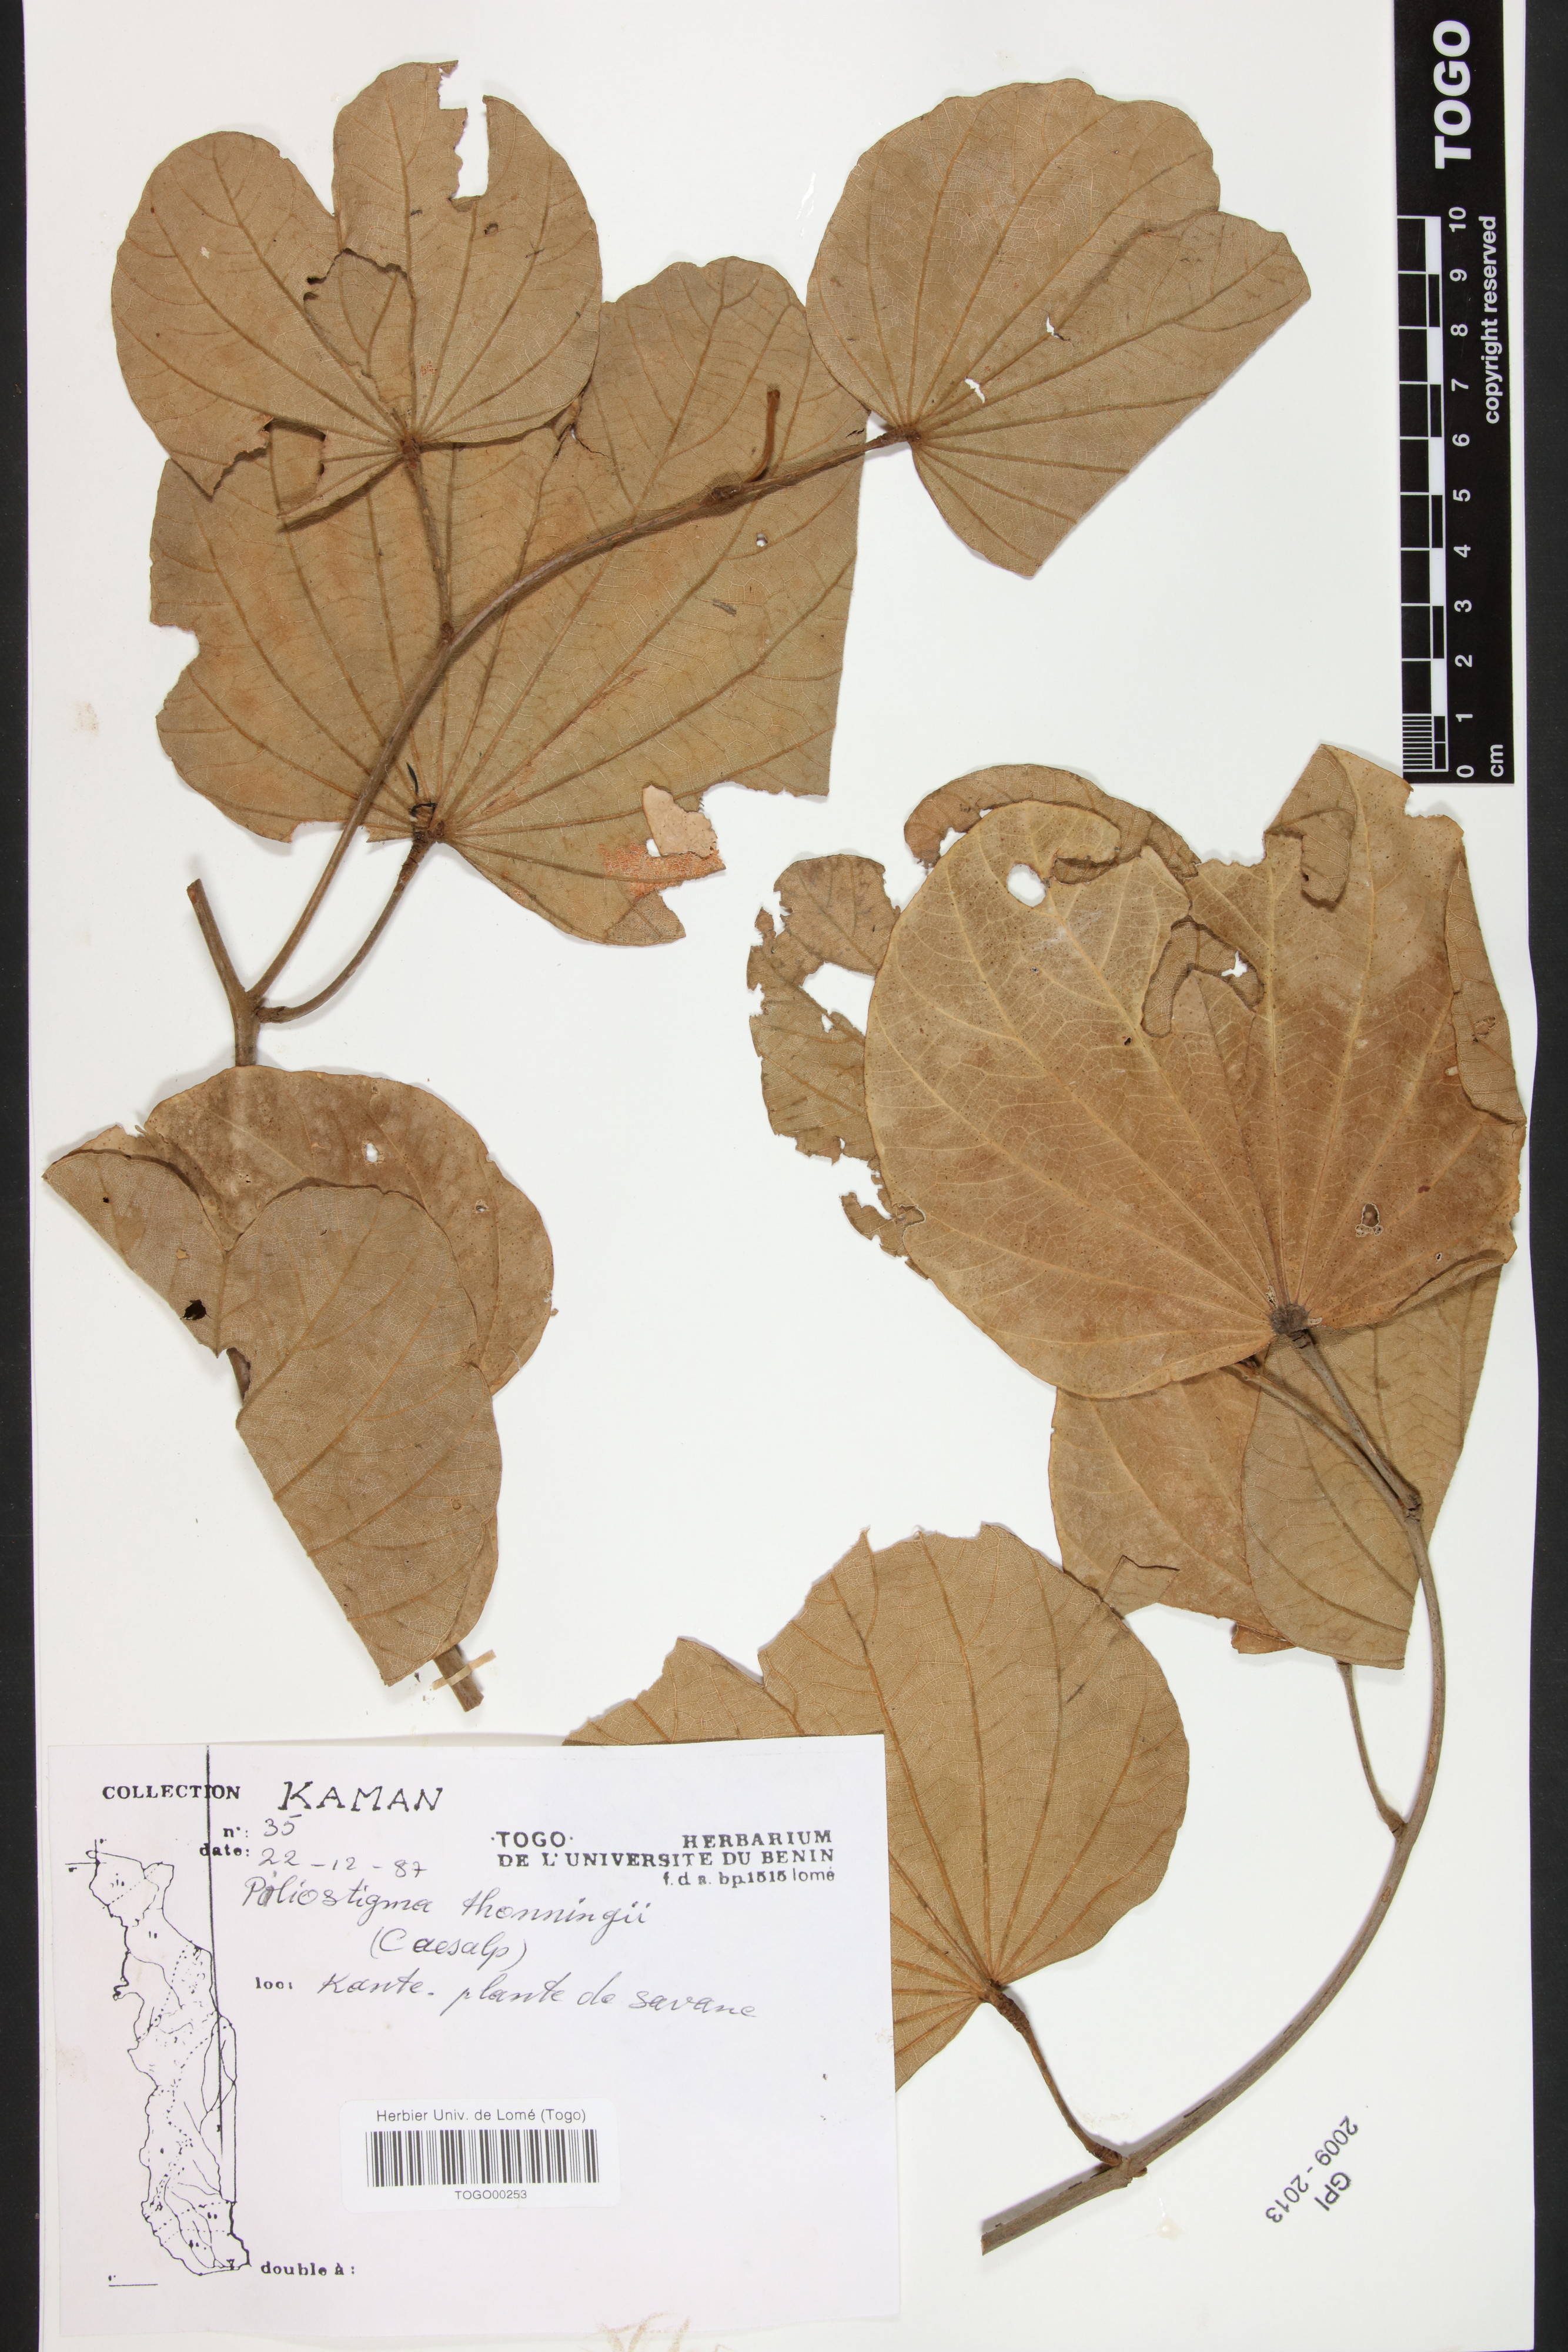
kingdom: Plantae
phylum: Tracheophyta
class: Magnoliopsida
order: Fabales
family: Fabaceae
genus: Piliostigma
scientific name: Piliostigma thonningii
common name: Kao
